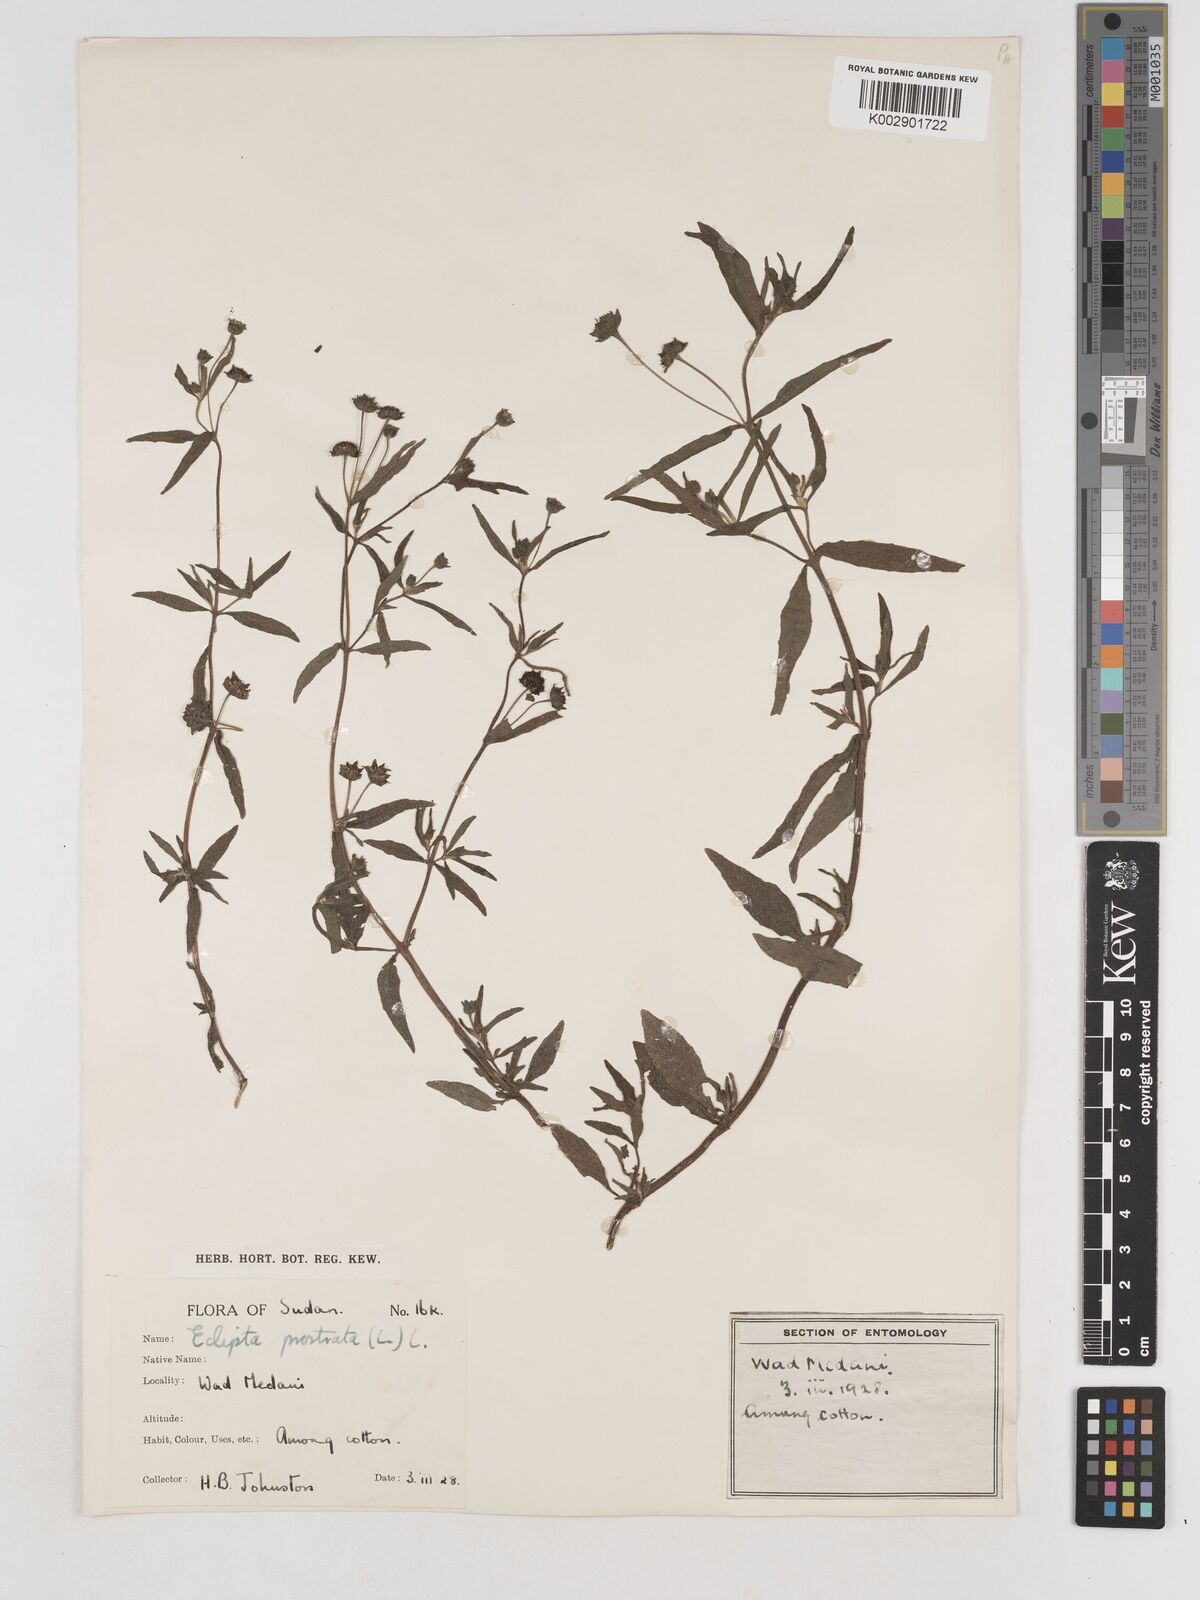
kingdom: Plantae
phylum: Tracheophyta
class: Magnoliopsida
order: Asterales
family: Asteraceae
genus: Eclipta
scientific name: Eclipta prostrata
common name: False daisy
